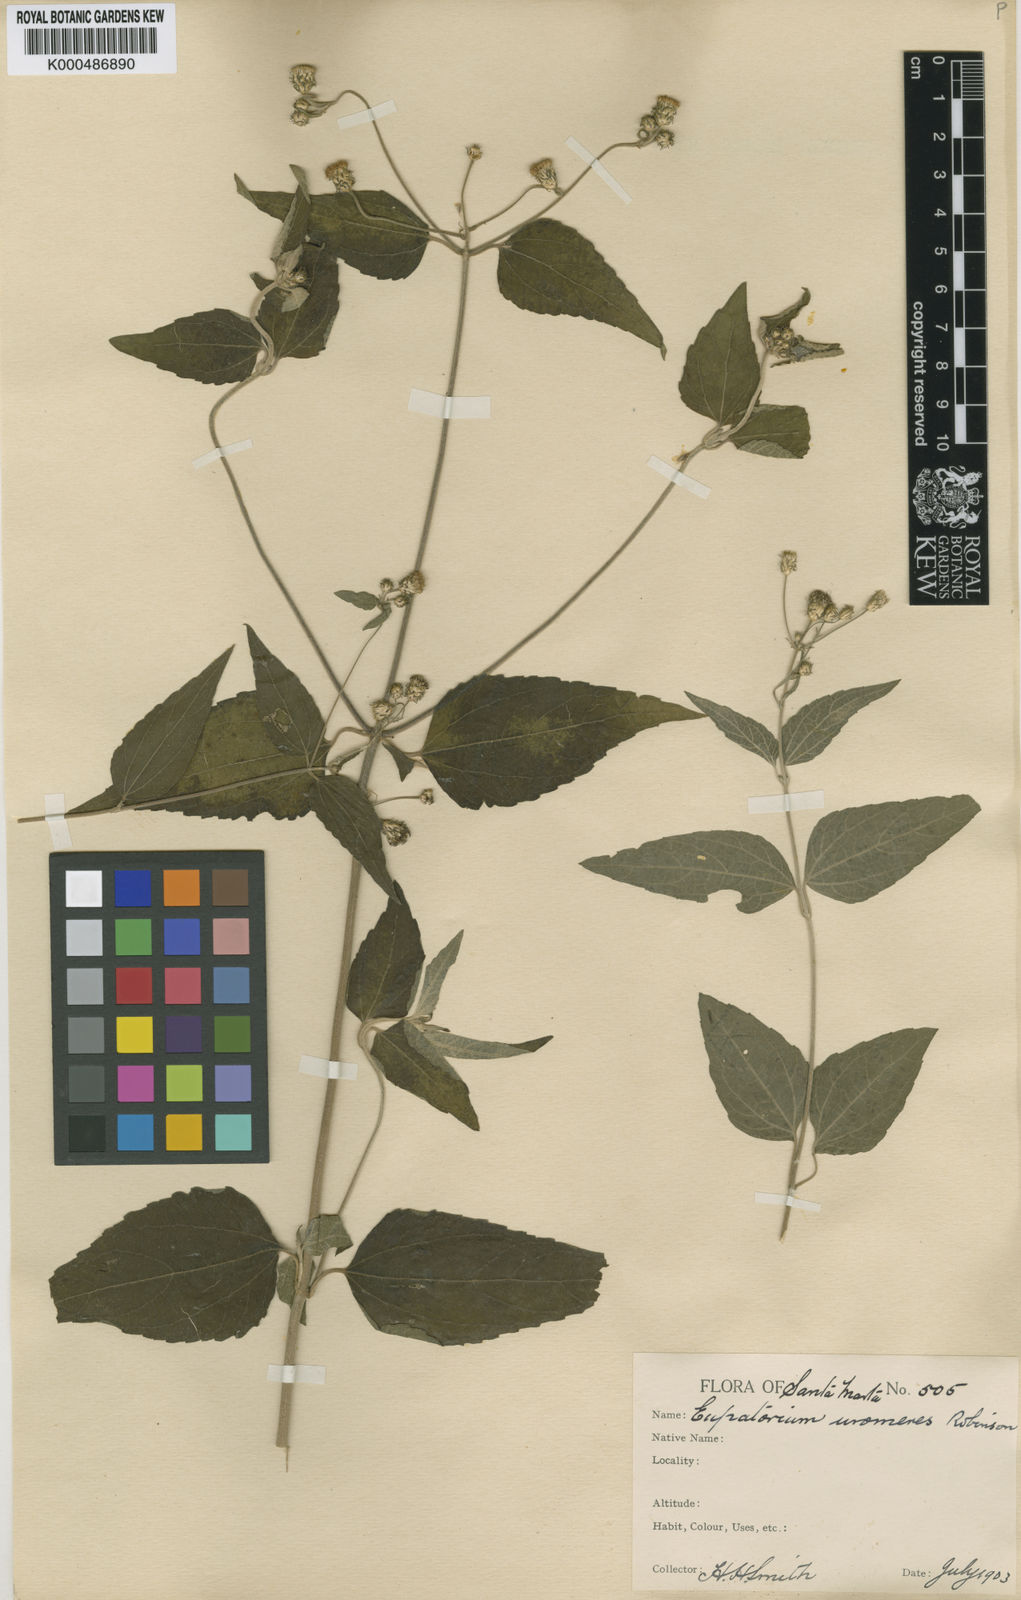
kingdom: Plantae
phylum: Tracheophyta
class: Magnoliopsida
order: Asterales
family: Asteraceae
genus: Chromolaena
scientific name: Chromolaena uromeres
